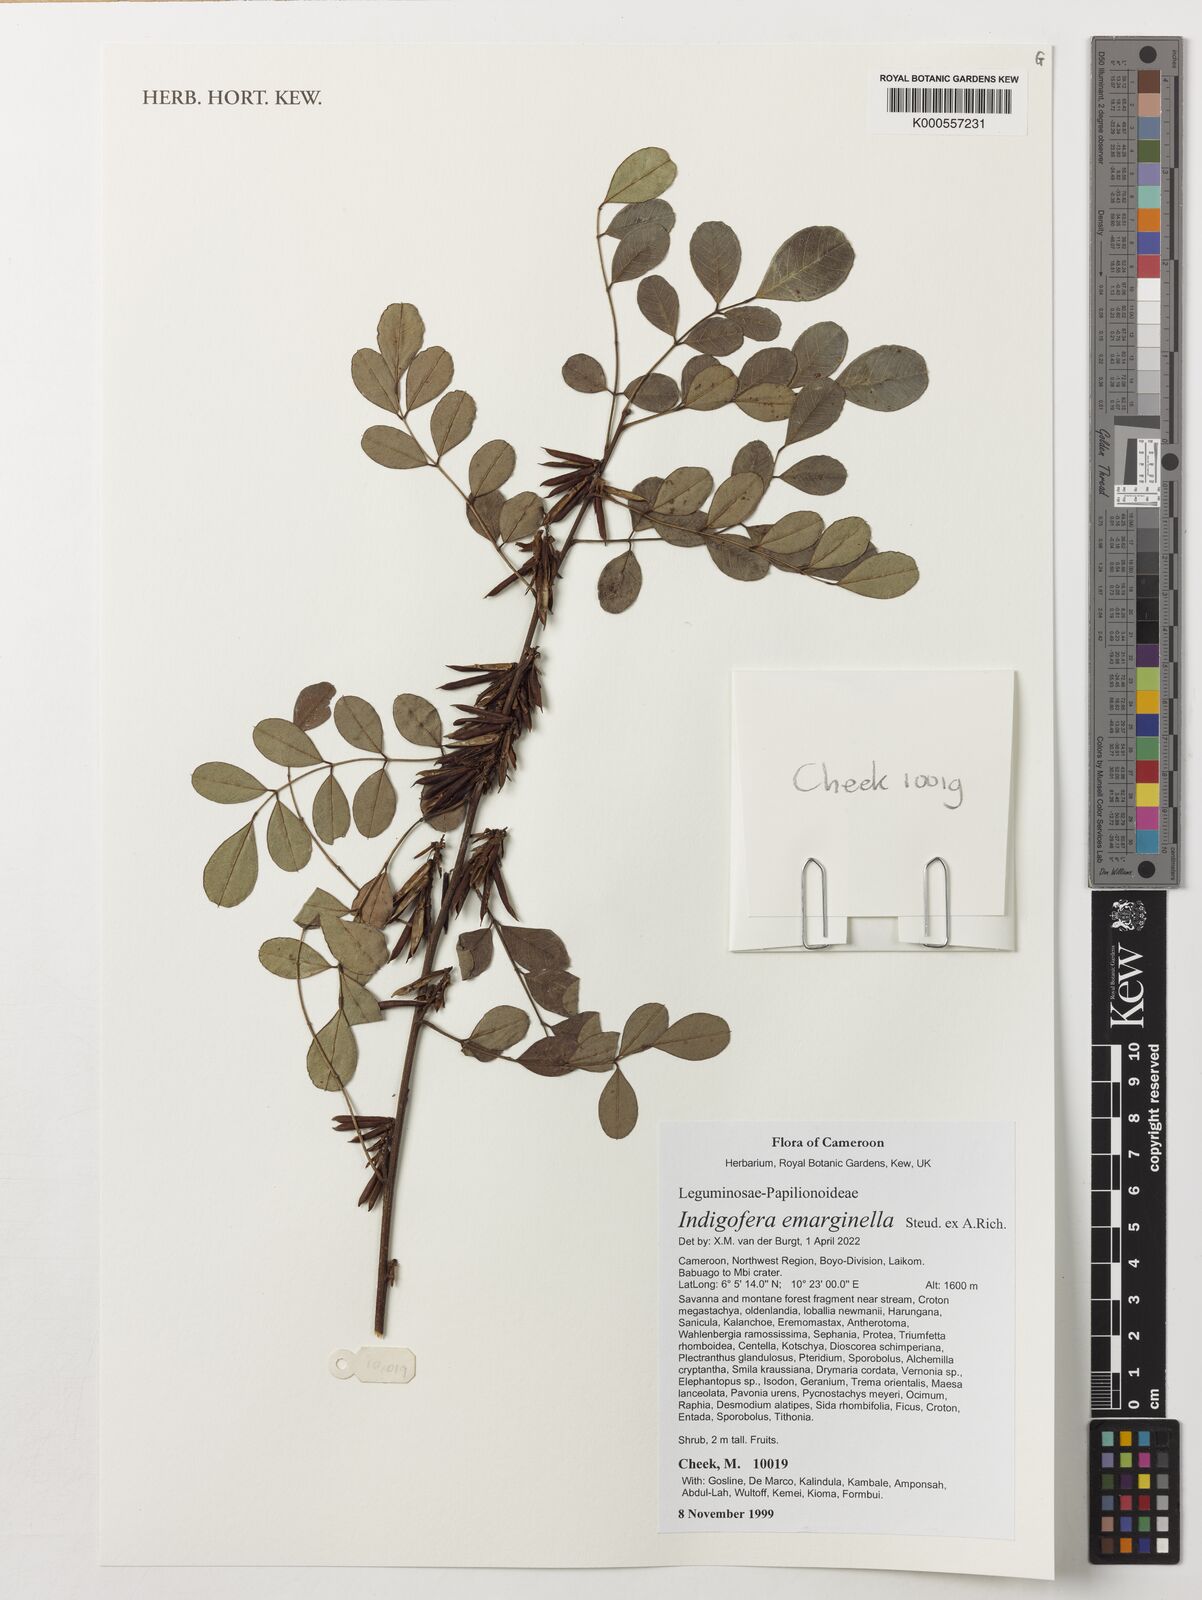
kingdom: Plantae
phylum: Tracheophyta
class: Magnoliopsida
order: Fabales
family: Fabaceae
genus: Indigofera
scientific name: Indigofera emarginella
